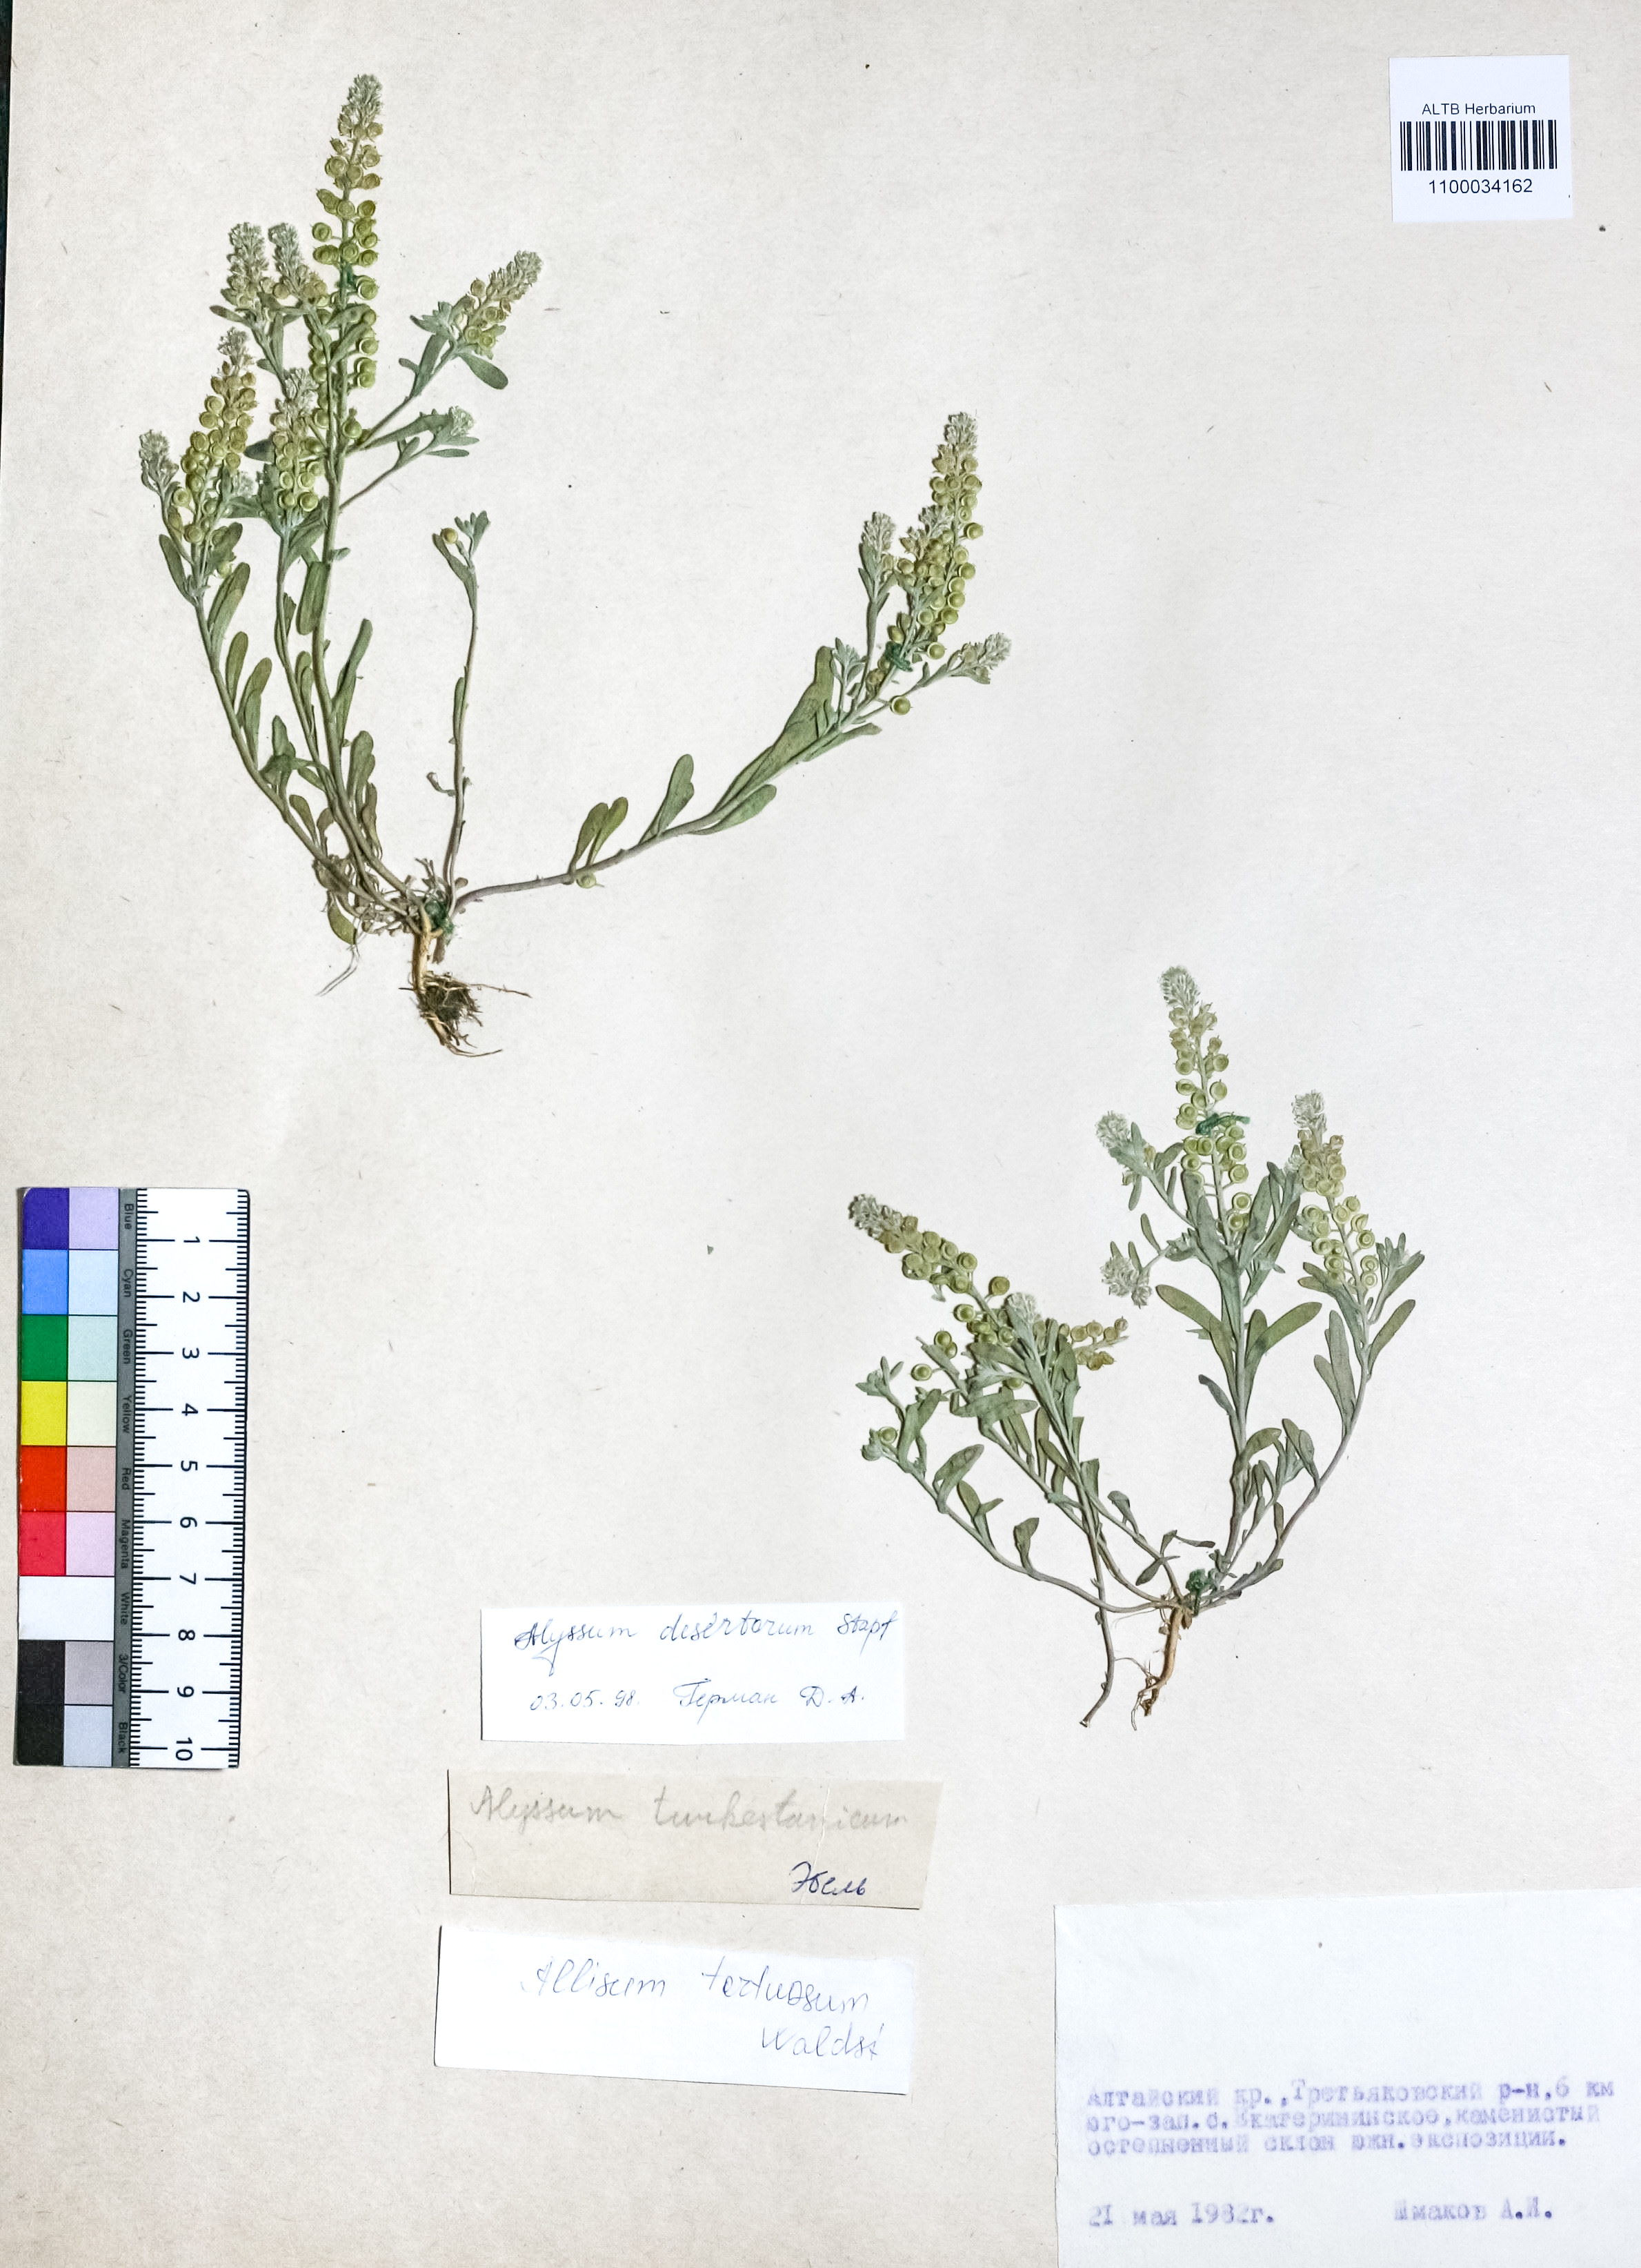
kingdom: Plantae
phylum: Tracheophyta
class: Magnoliopsida
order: Brassicales
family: Brassicaceae
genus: Alyssum
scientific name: Alyssum turkestanicum
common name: Desert alyssum
